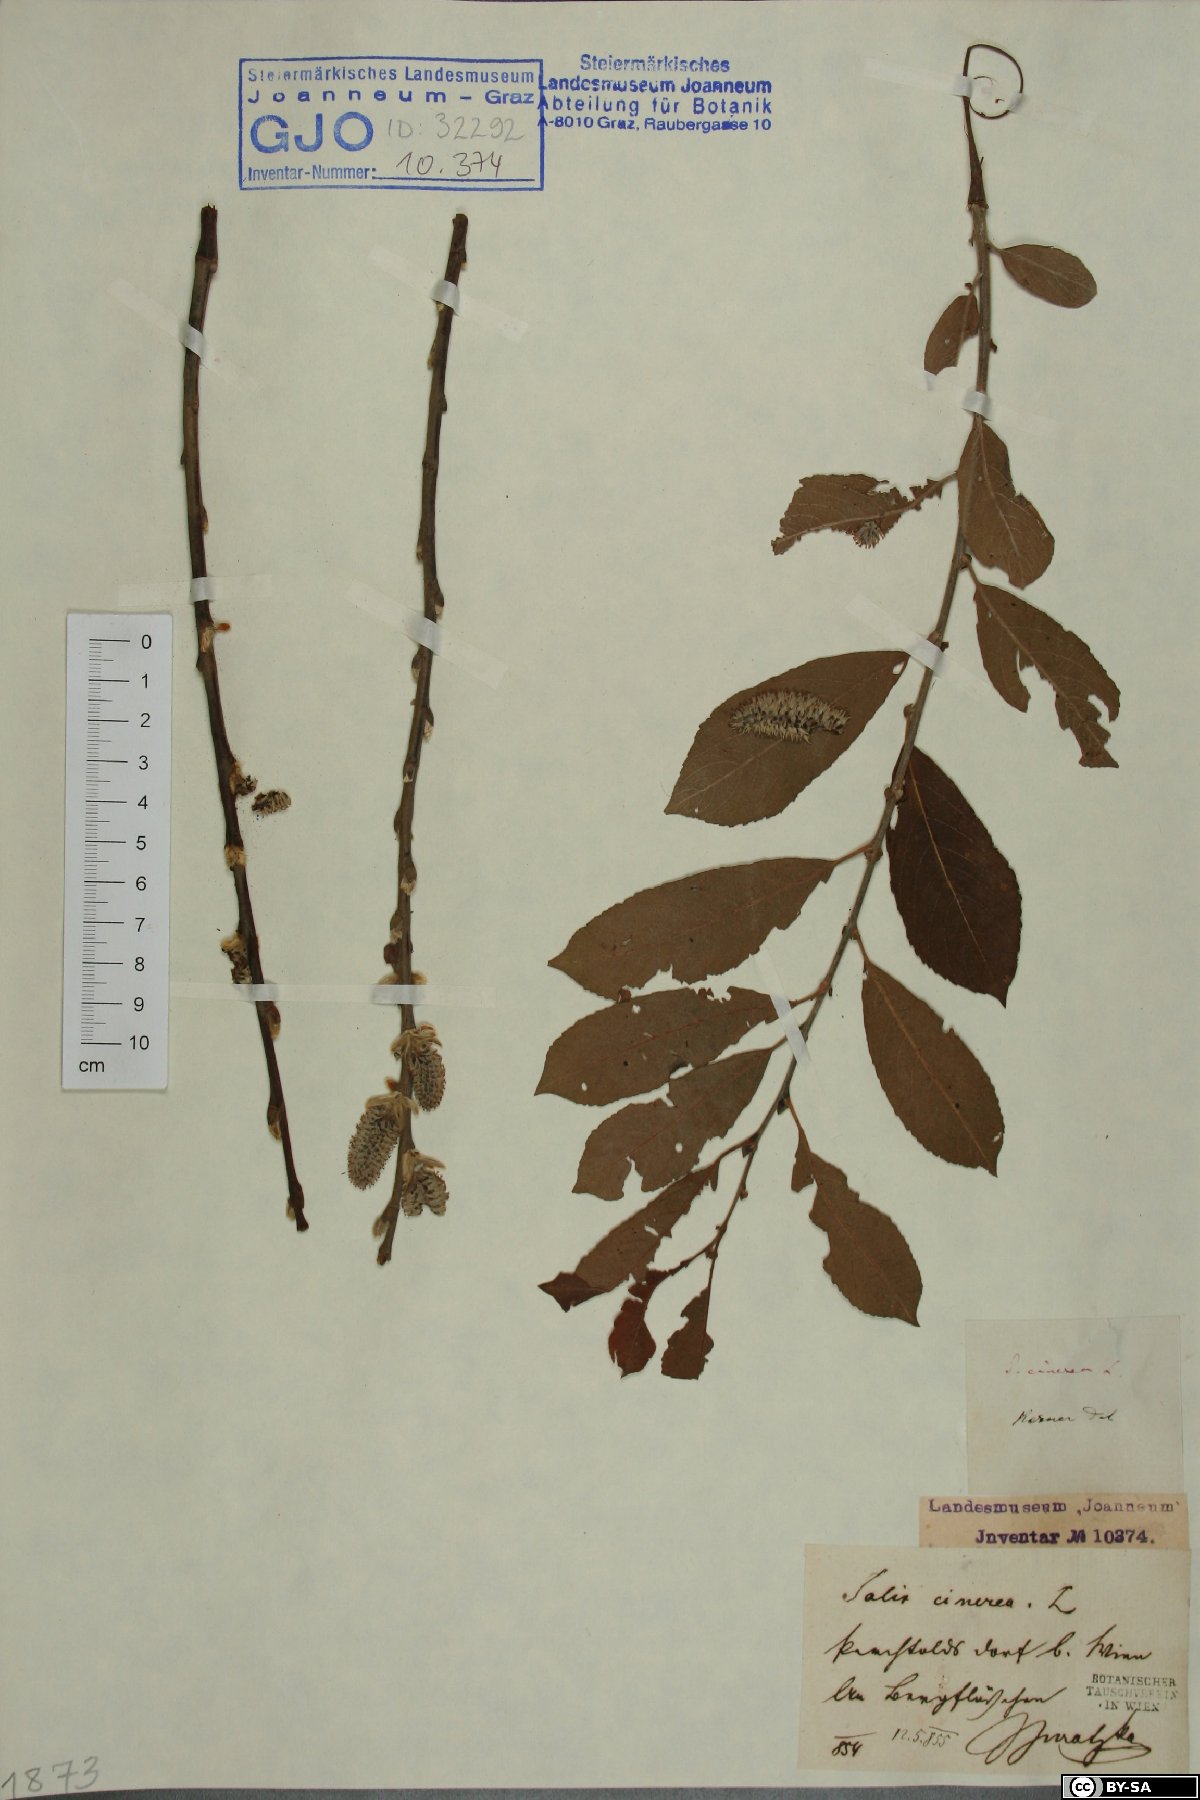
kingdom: Plantae
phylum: Tracheophyta
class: Magnoliopsida
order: Malpighiales
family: Salicaceae
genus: Salix
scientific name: Salix cinerea
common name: Common sallow
